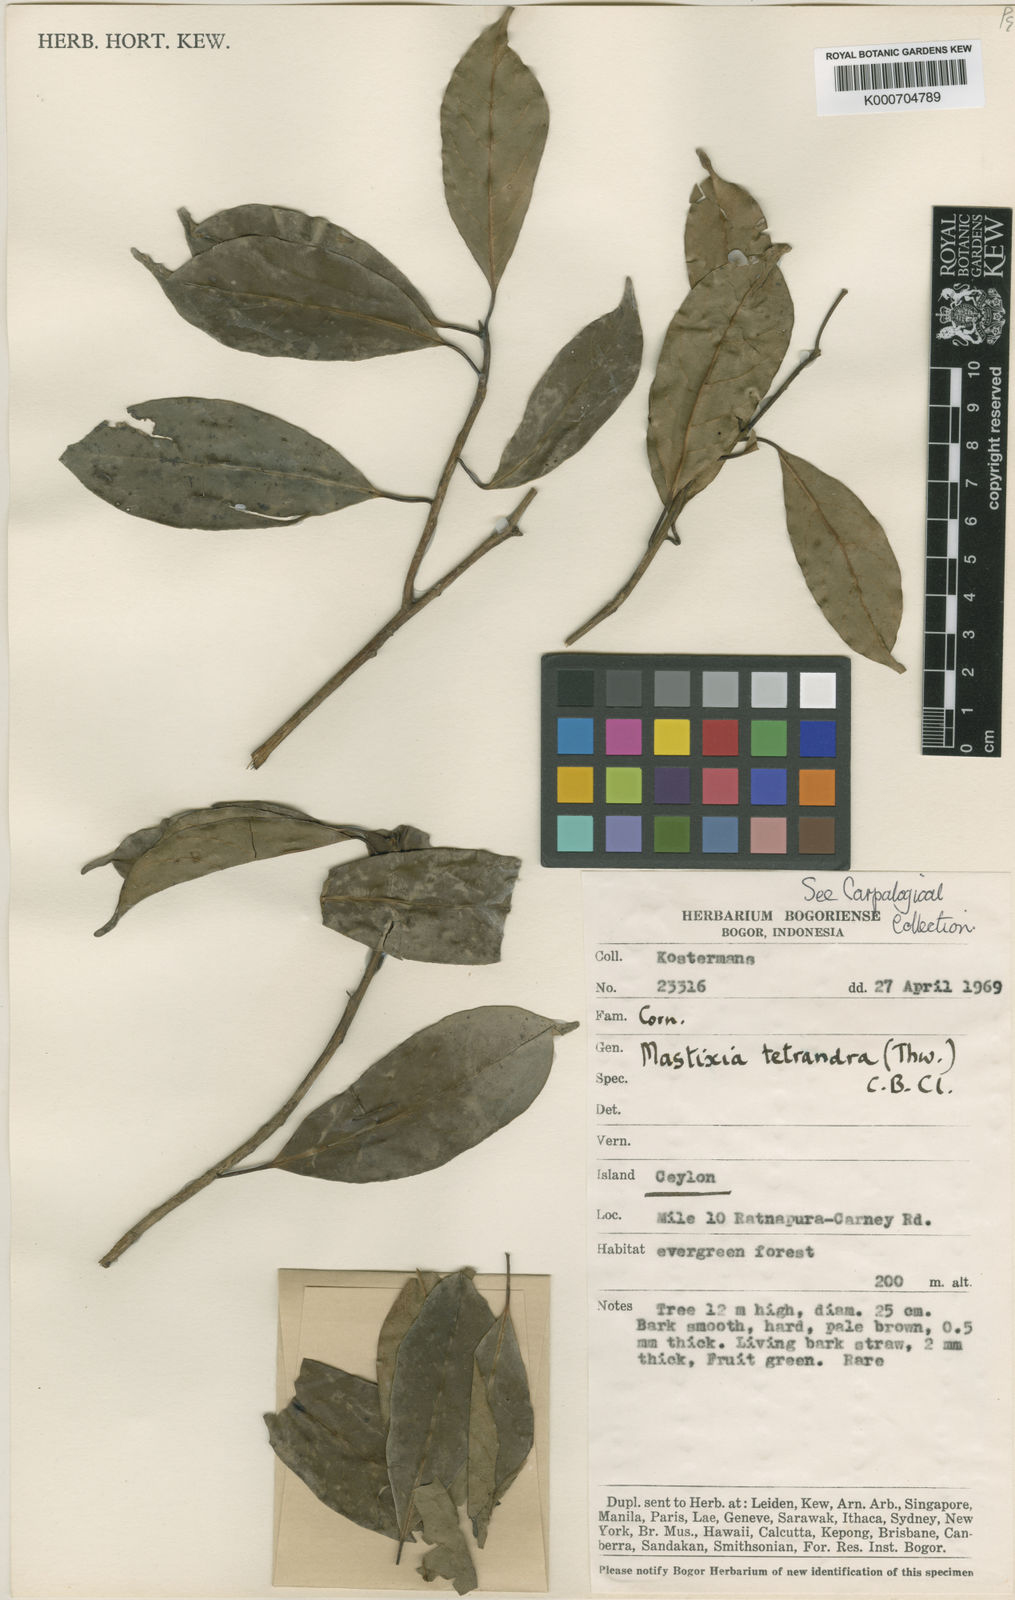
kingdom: Plantae
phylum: Tracheophyta
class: Magnoliopsida
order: Cornales
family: Nyssaceae
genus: Mastixia
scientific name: Mastixia tetrandra
